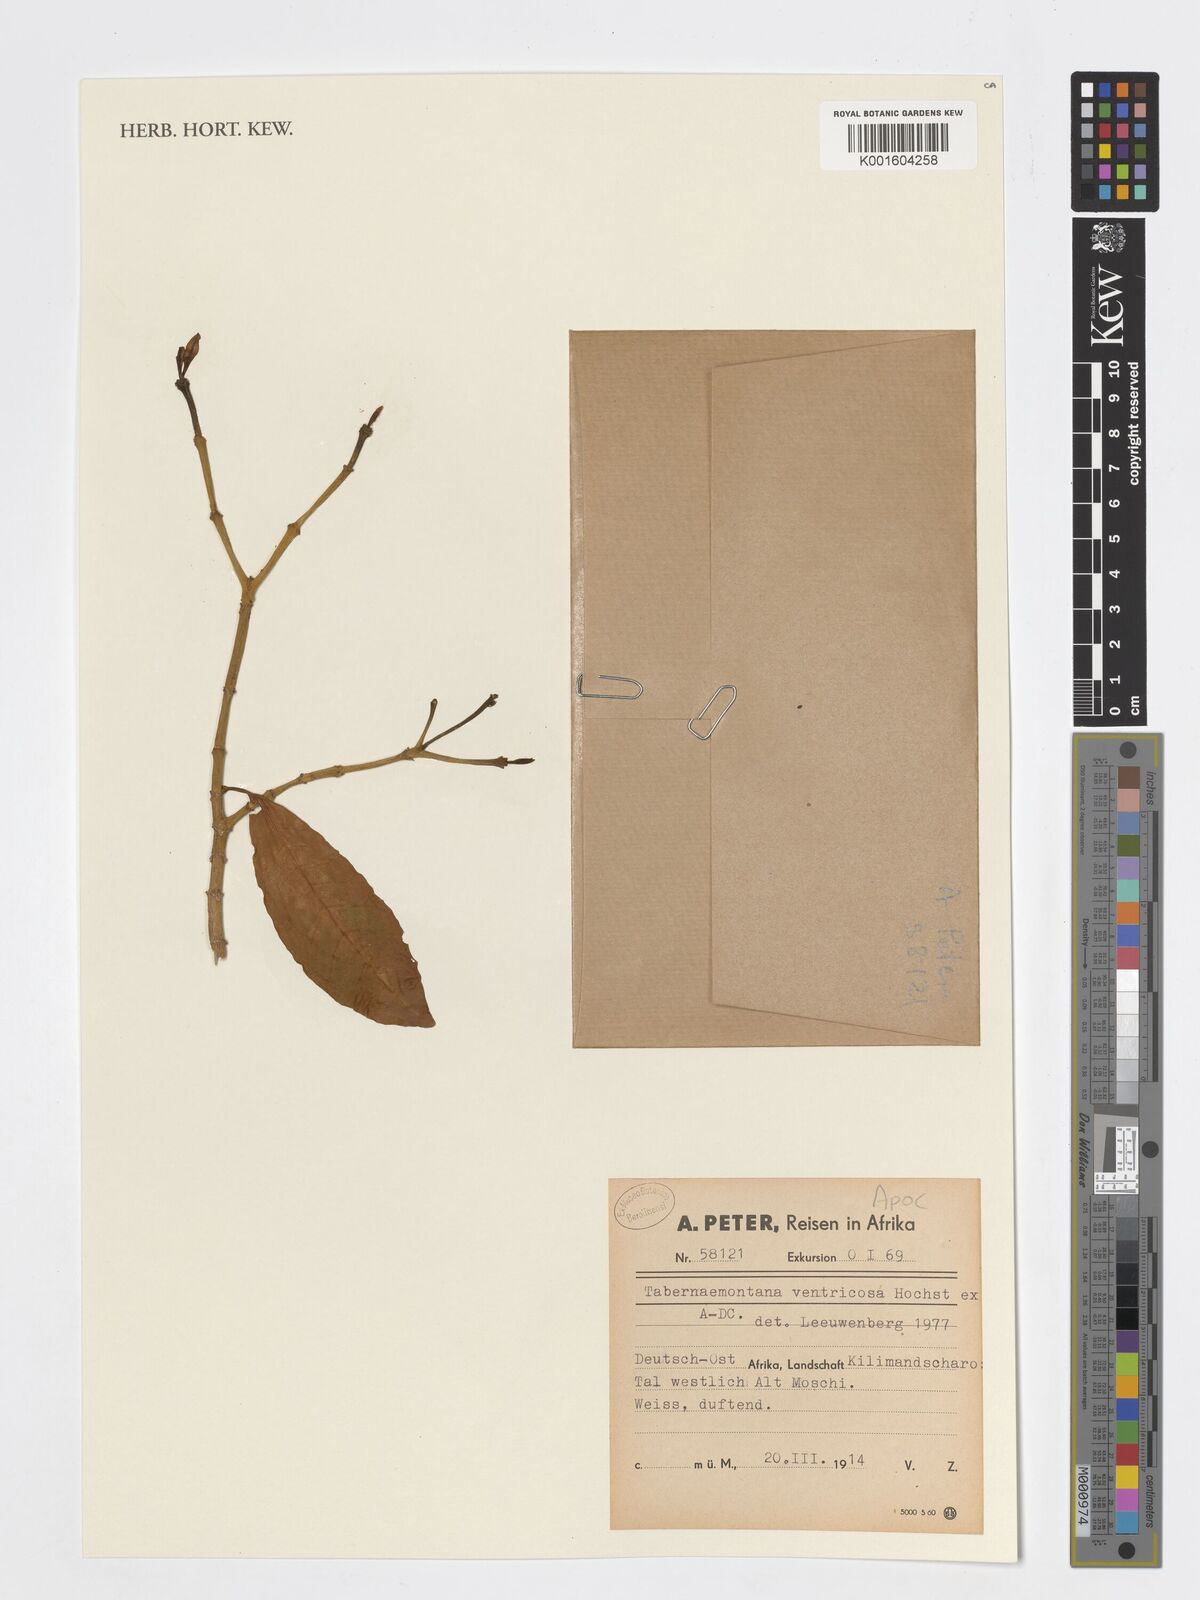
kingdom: Plantae
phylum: Tracheophyta
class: Magnoliopsida
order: Gentianales
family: Apocynaceae
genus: Tabernaemontana
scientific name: Tabernaemontana ventricosa
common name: Forest toad-tree
